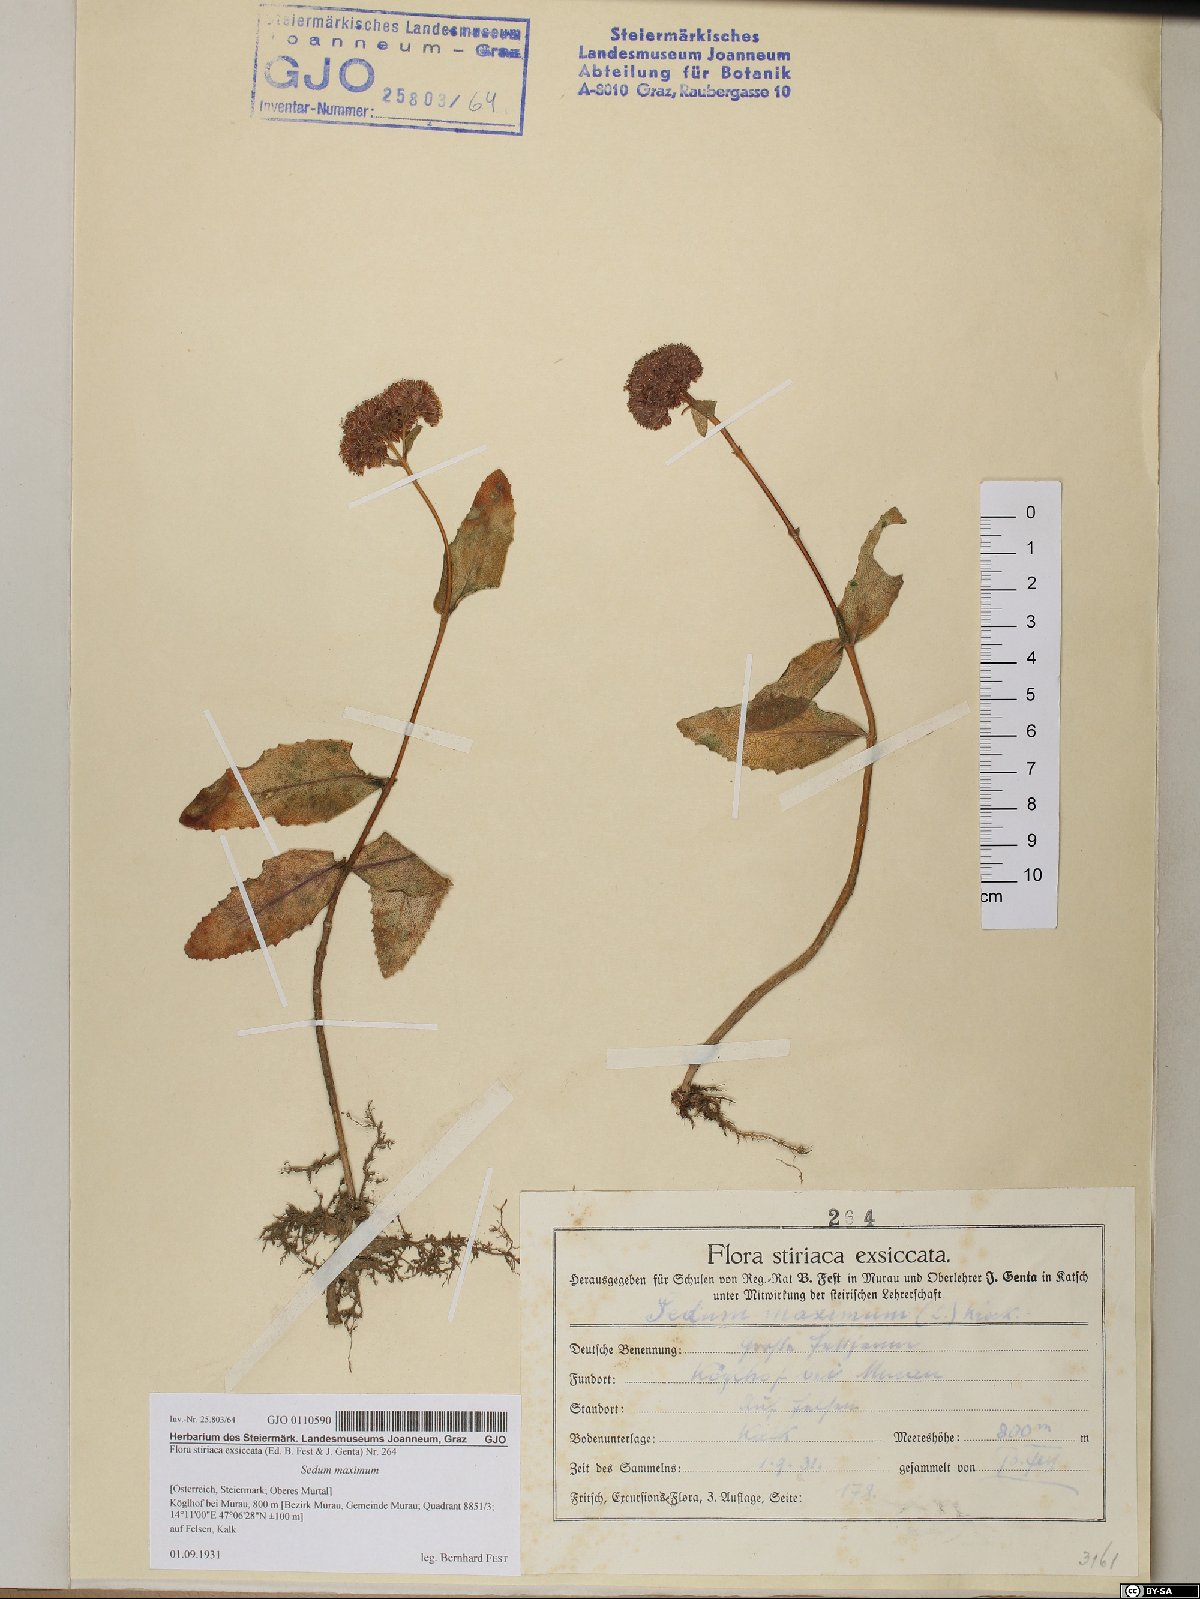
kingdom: Plantae
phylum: Tracheophyta
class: Magnoliopsida
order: Saxifragales
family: Crassulaceae
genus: Hylotelephium
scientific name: Hylotelephium maximum
